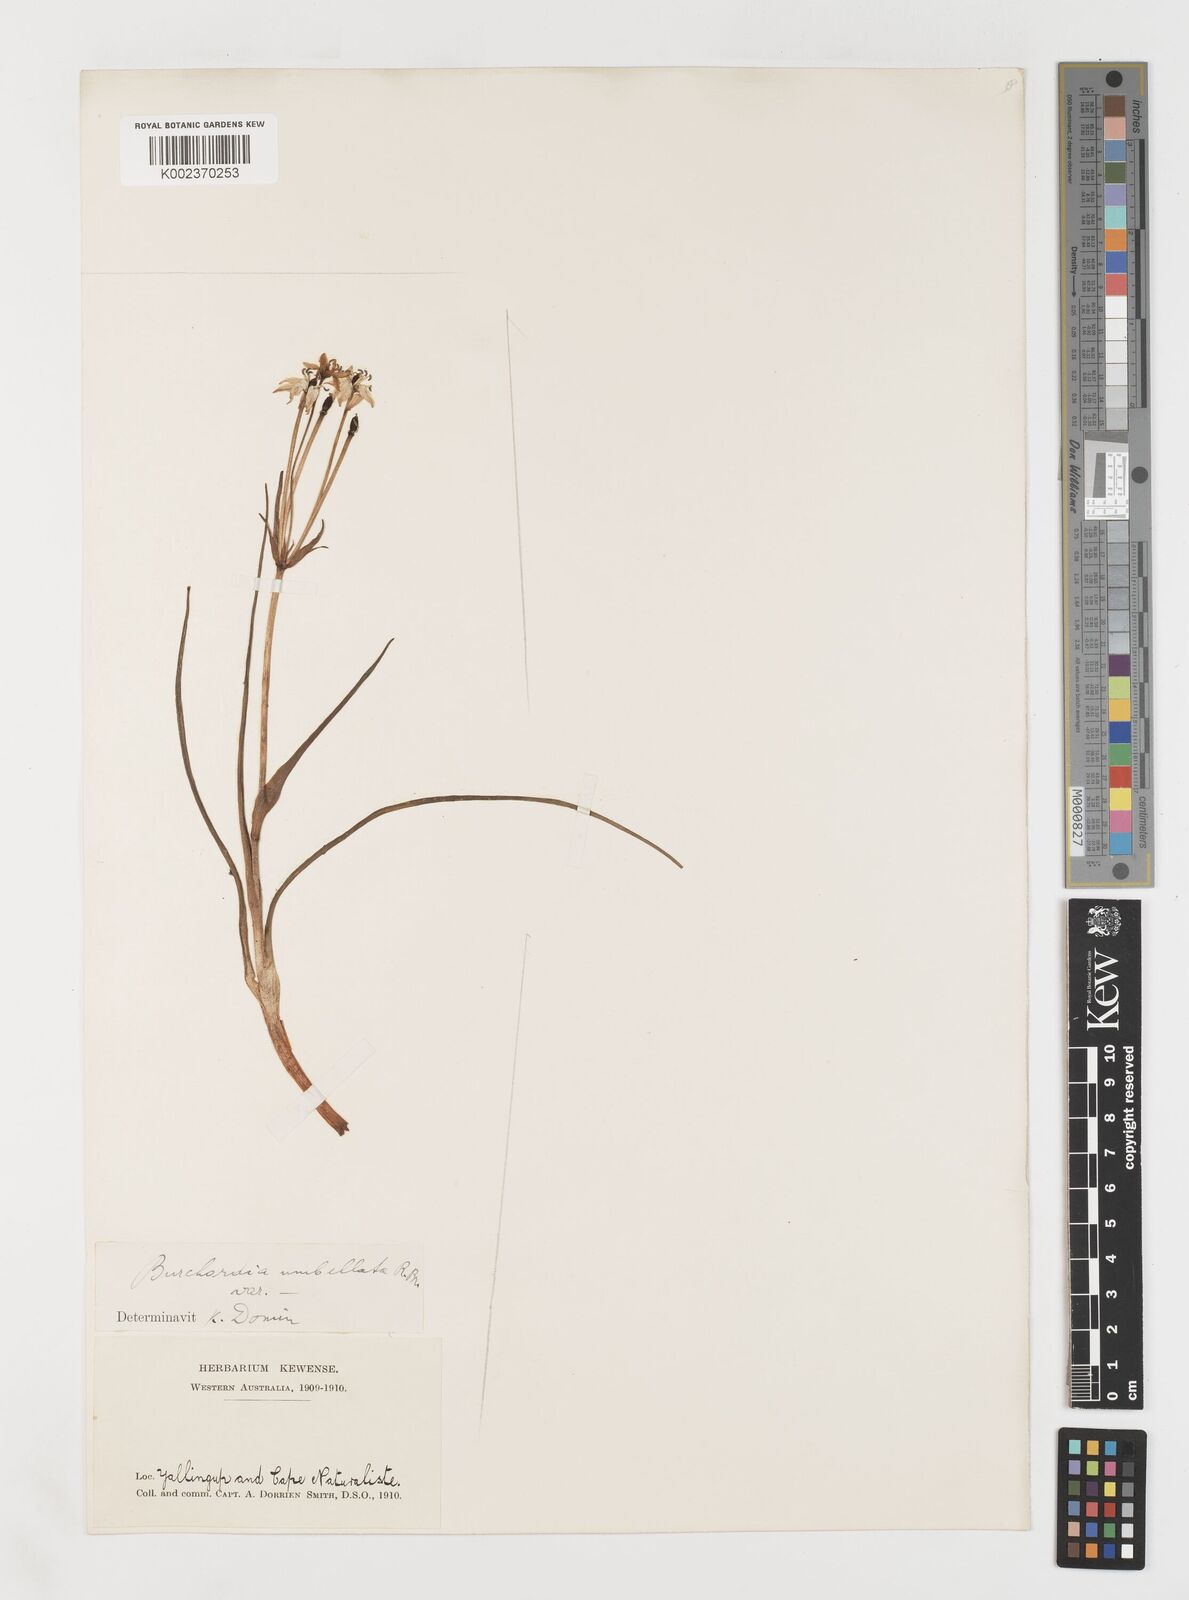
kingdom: Plantae
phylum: Tracheophyta
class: Liliopsida
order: Liliales
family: Colchicaceae
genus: Burchardia
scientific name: Burchardia umbellata
